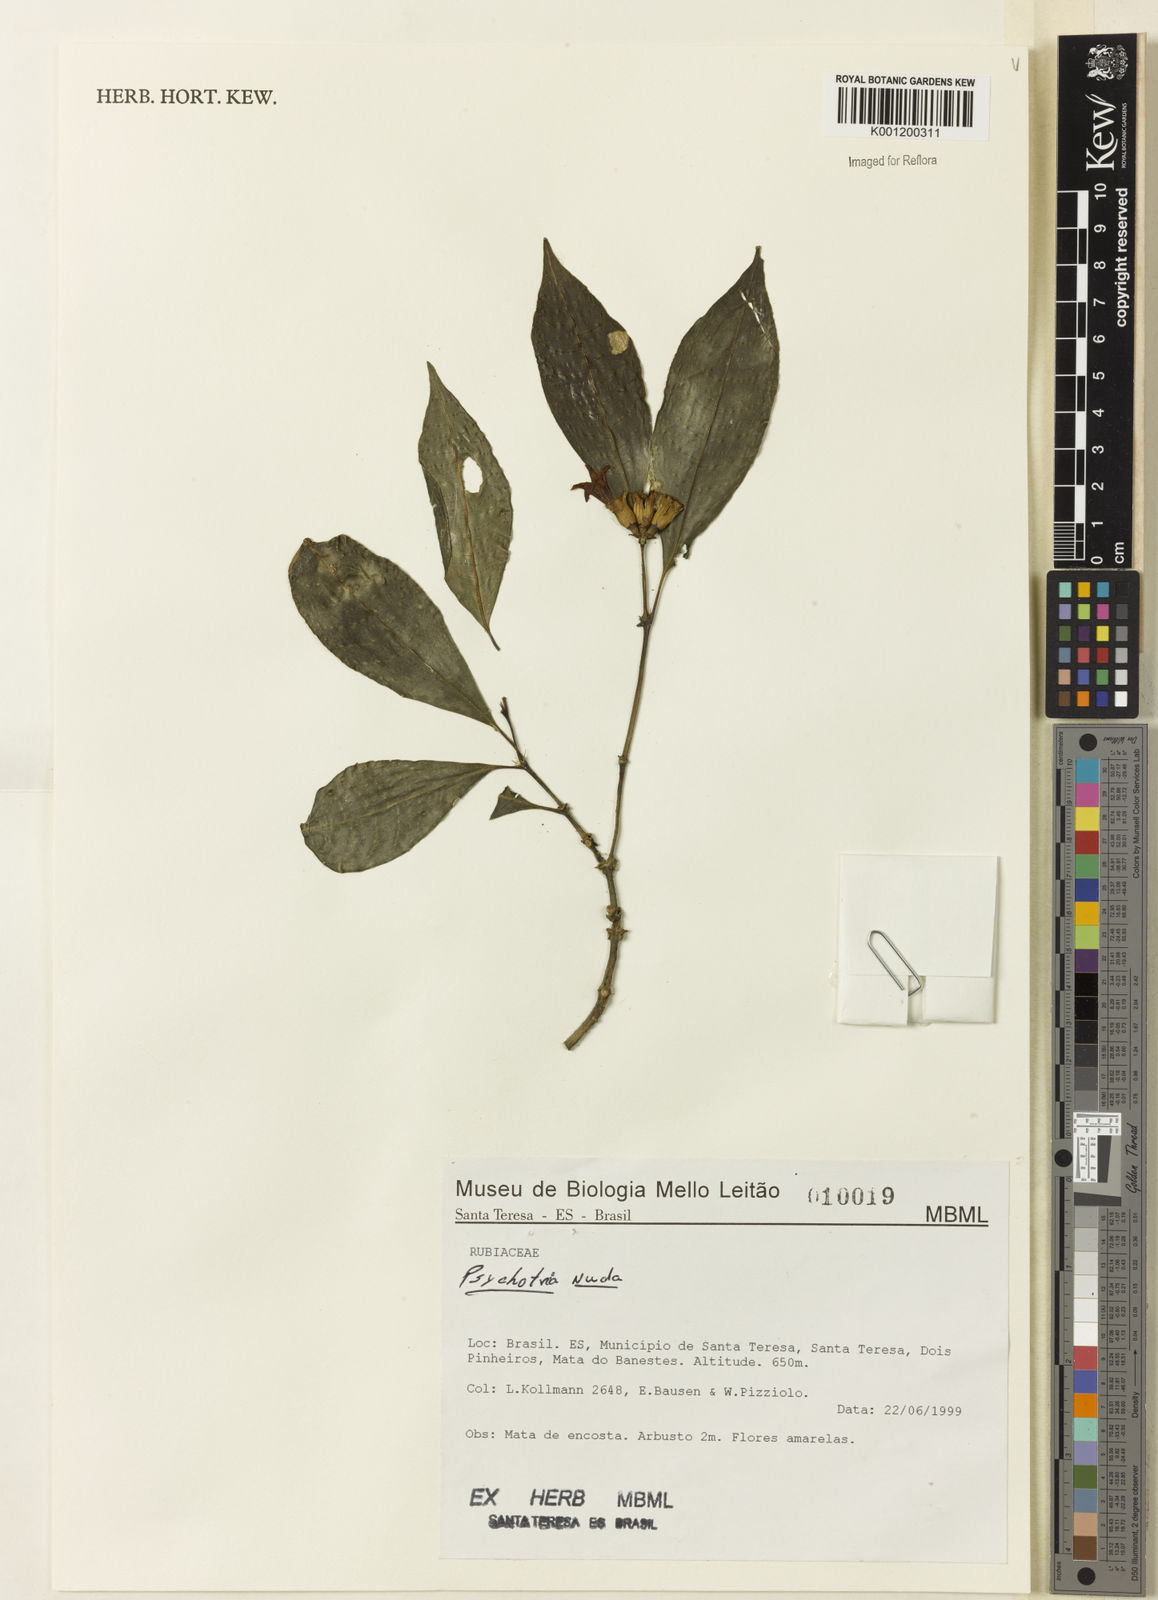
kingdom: Plantae
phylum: Tracheophyta
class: Magnoliopsida
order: Gentianales
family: Rubiaceae
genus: Psychotria
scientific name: Psychotria nuda
